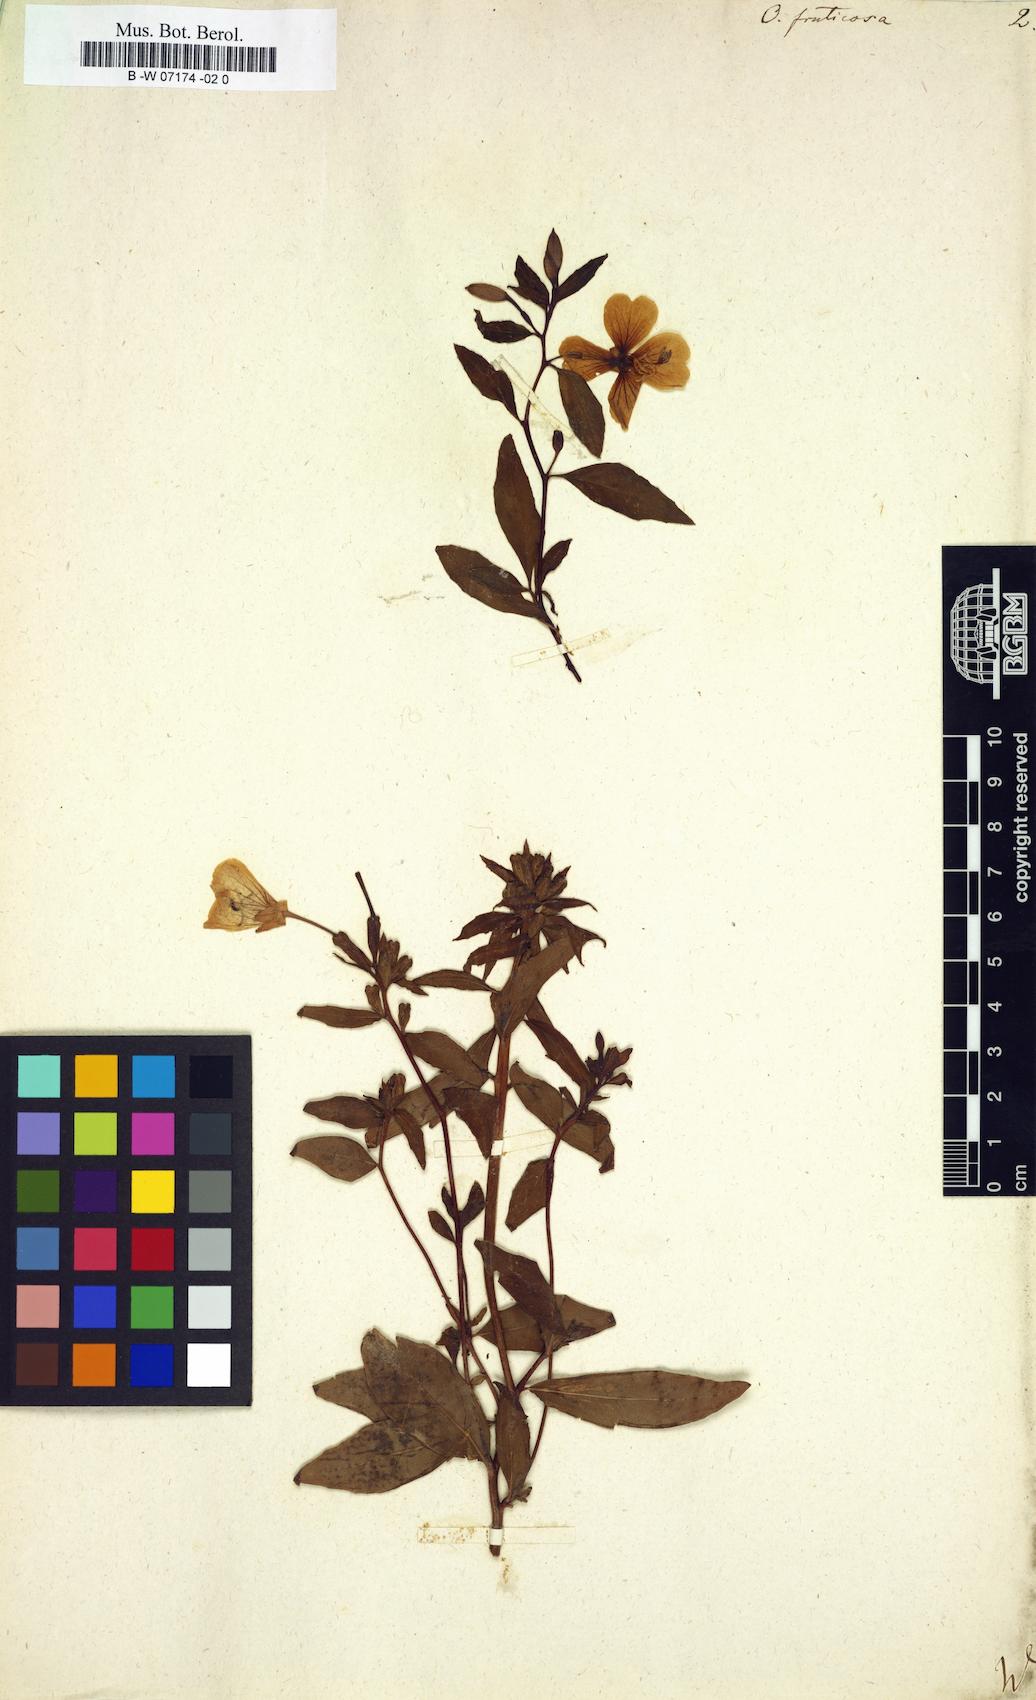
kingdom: Plantae
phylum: Tracheophyta
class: Magnoliopsida
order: Myrtales
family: Onagraceae
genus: Oenothera
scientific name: Oenothera fruticosa
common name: Southern sundrops
